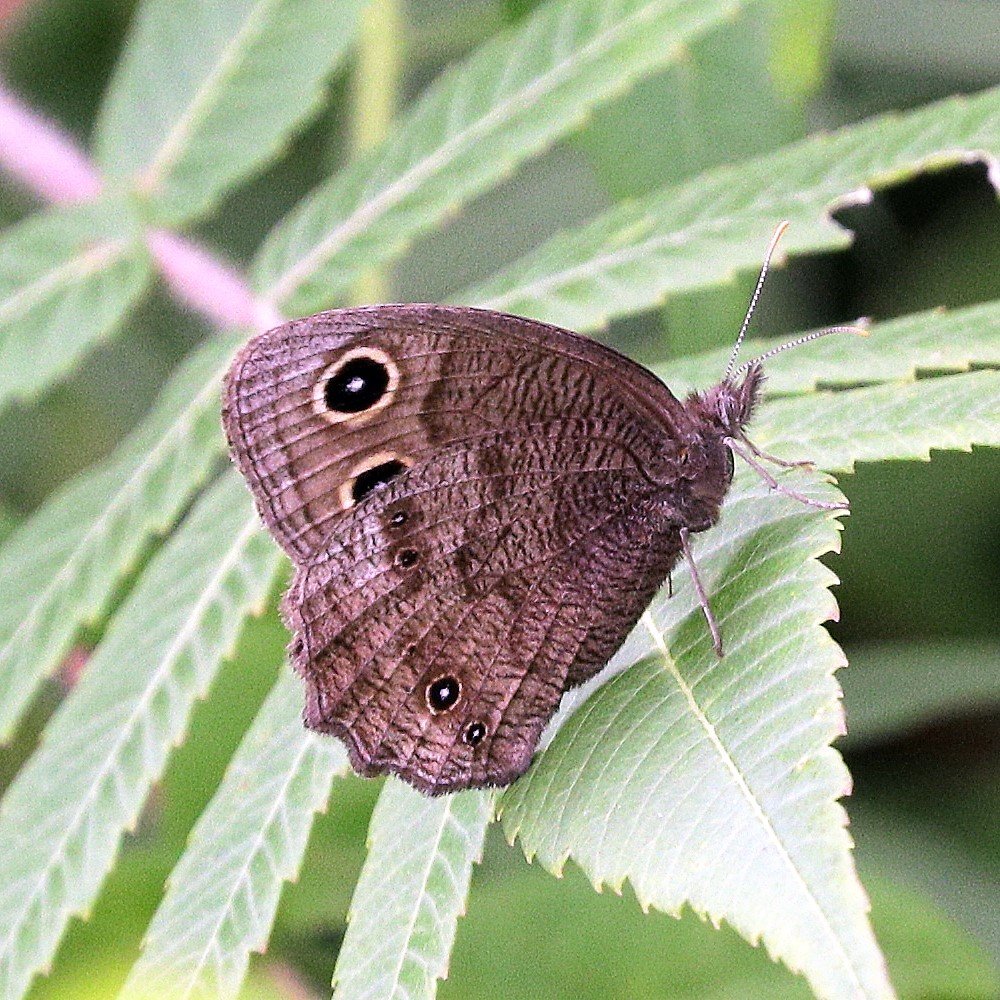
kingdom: Animalia
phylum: Arthropoda
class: Insecta
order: Lepidoptera
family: Nymphalidae
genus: Cercyonis
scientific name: Cercyonis pegala
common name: Common Wood-Nymph
